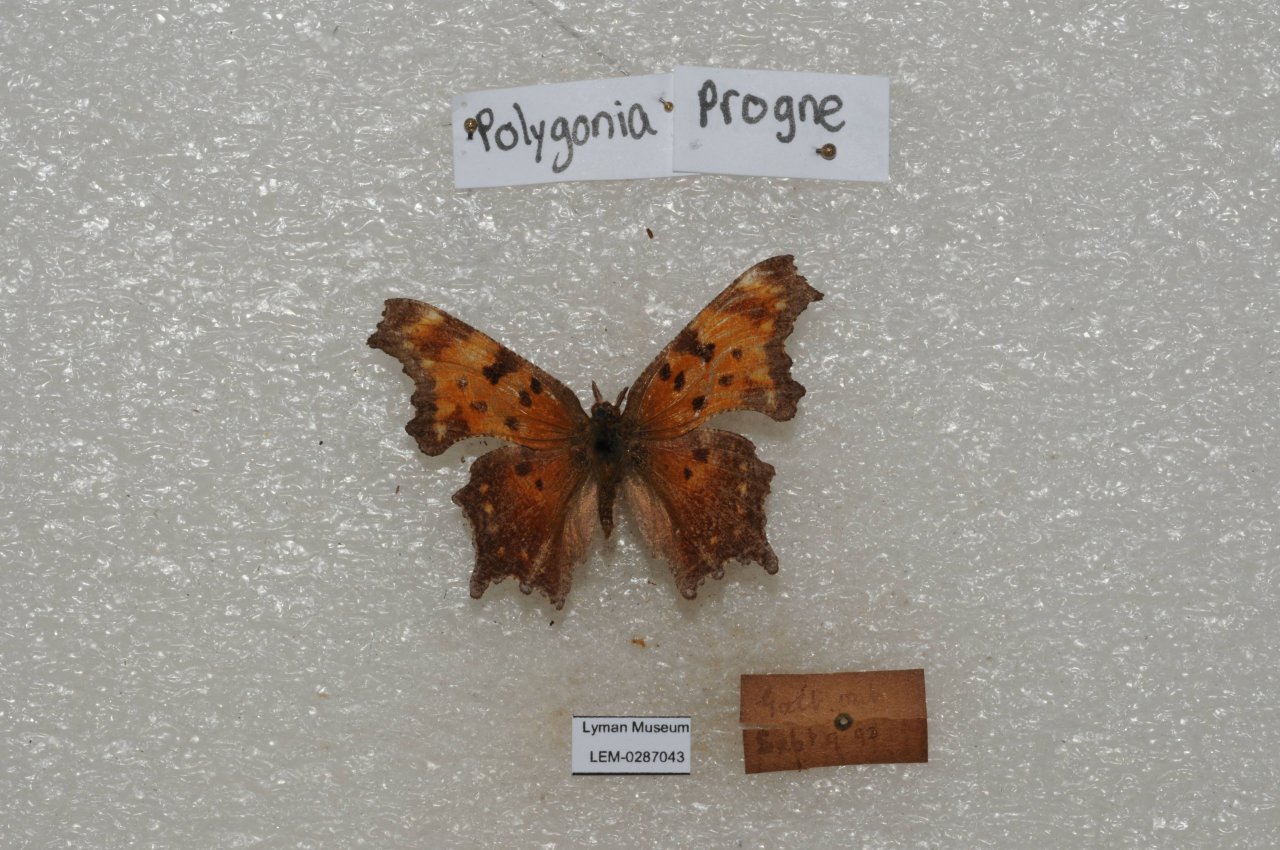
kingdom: Animalia
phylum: Arthropoda
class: Insecta
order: Lepidoptera
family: Nymphalidae
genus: Polygonia
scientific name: Polygonia progne
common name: Gray Comma
